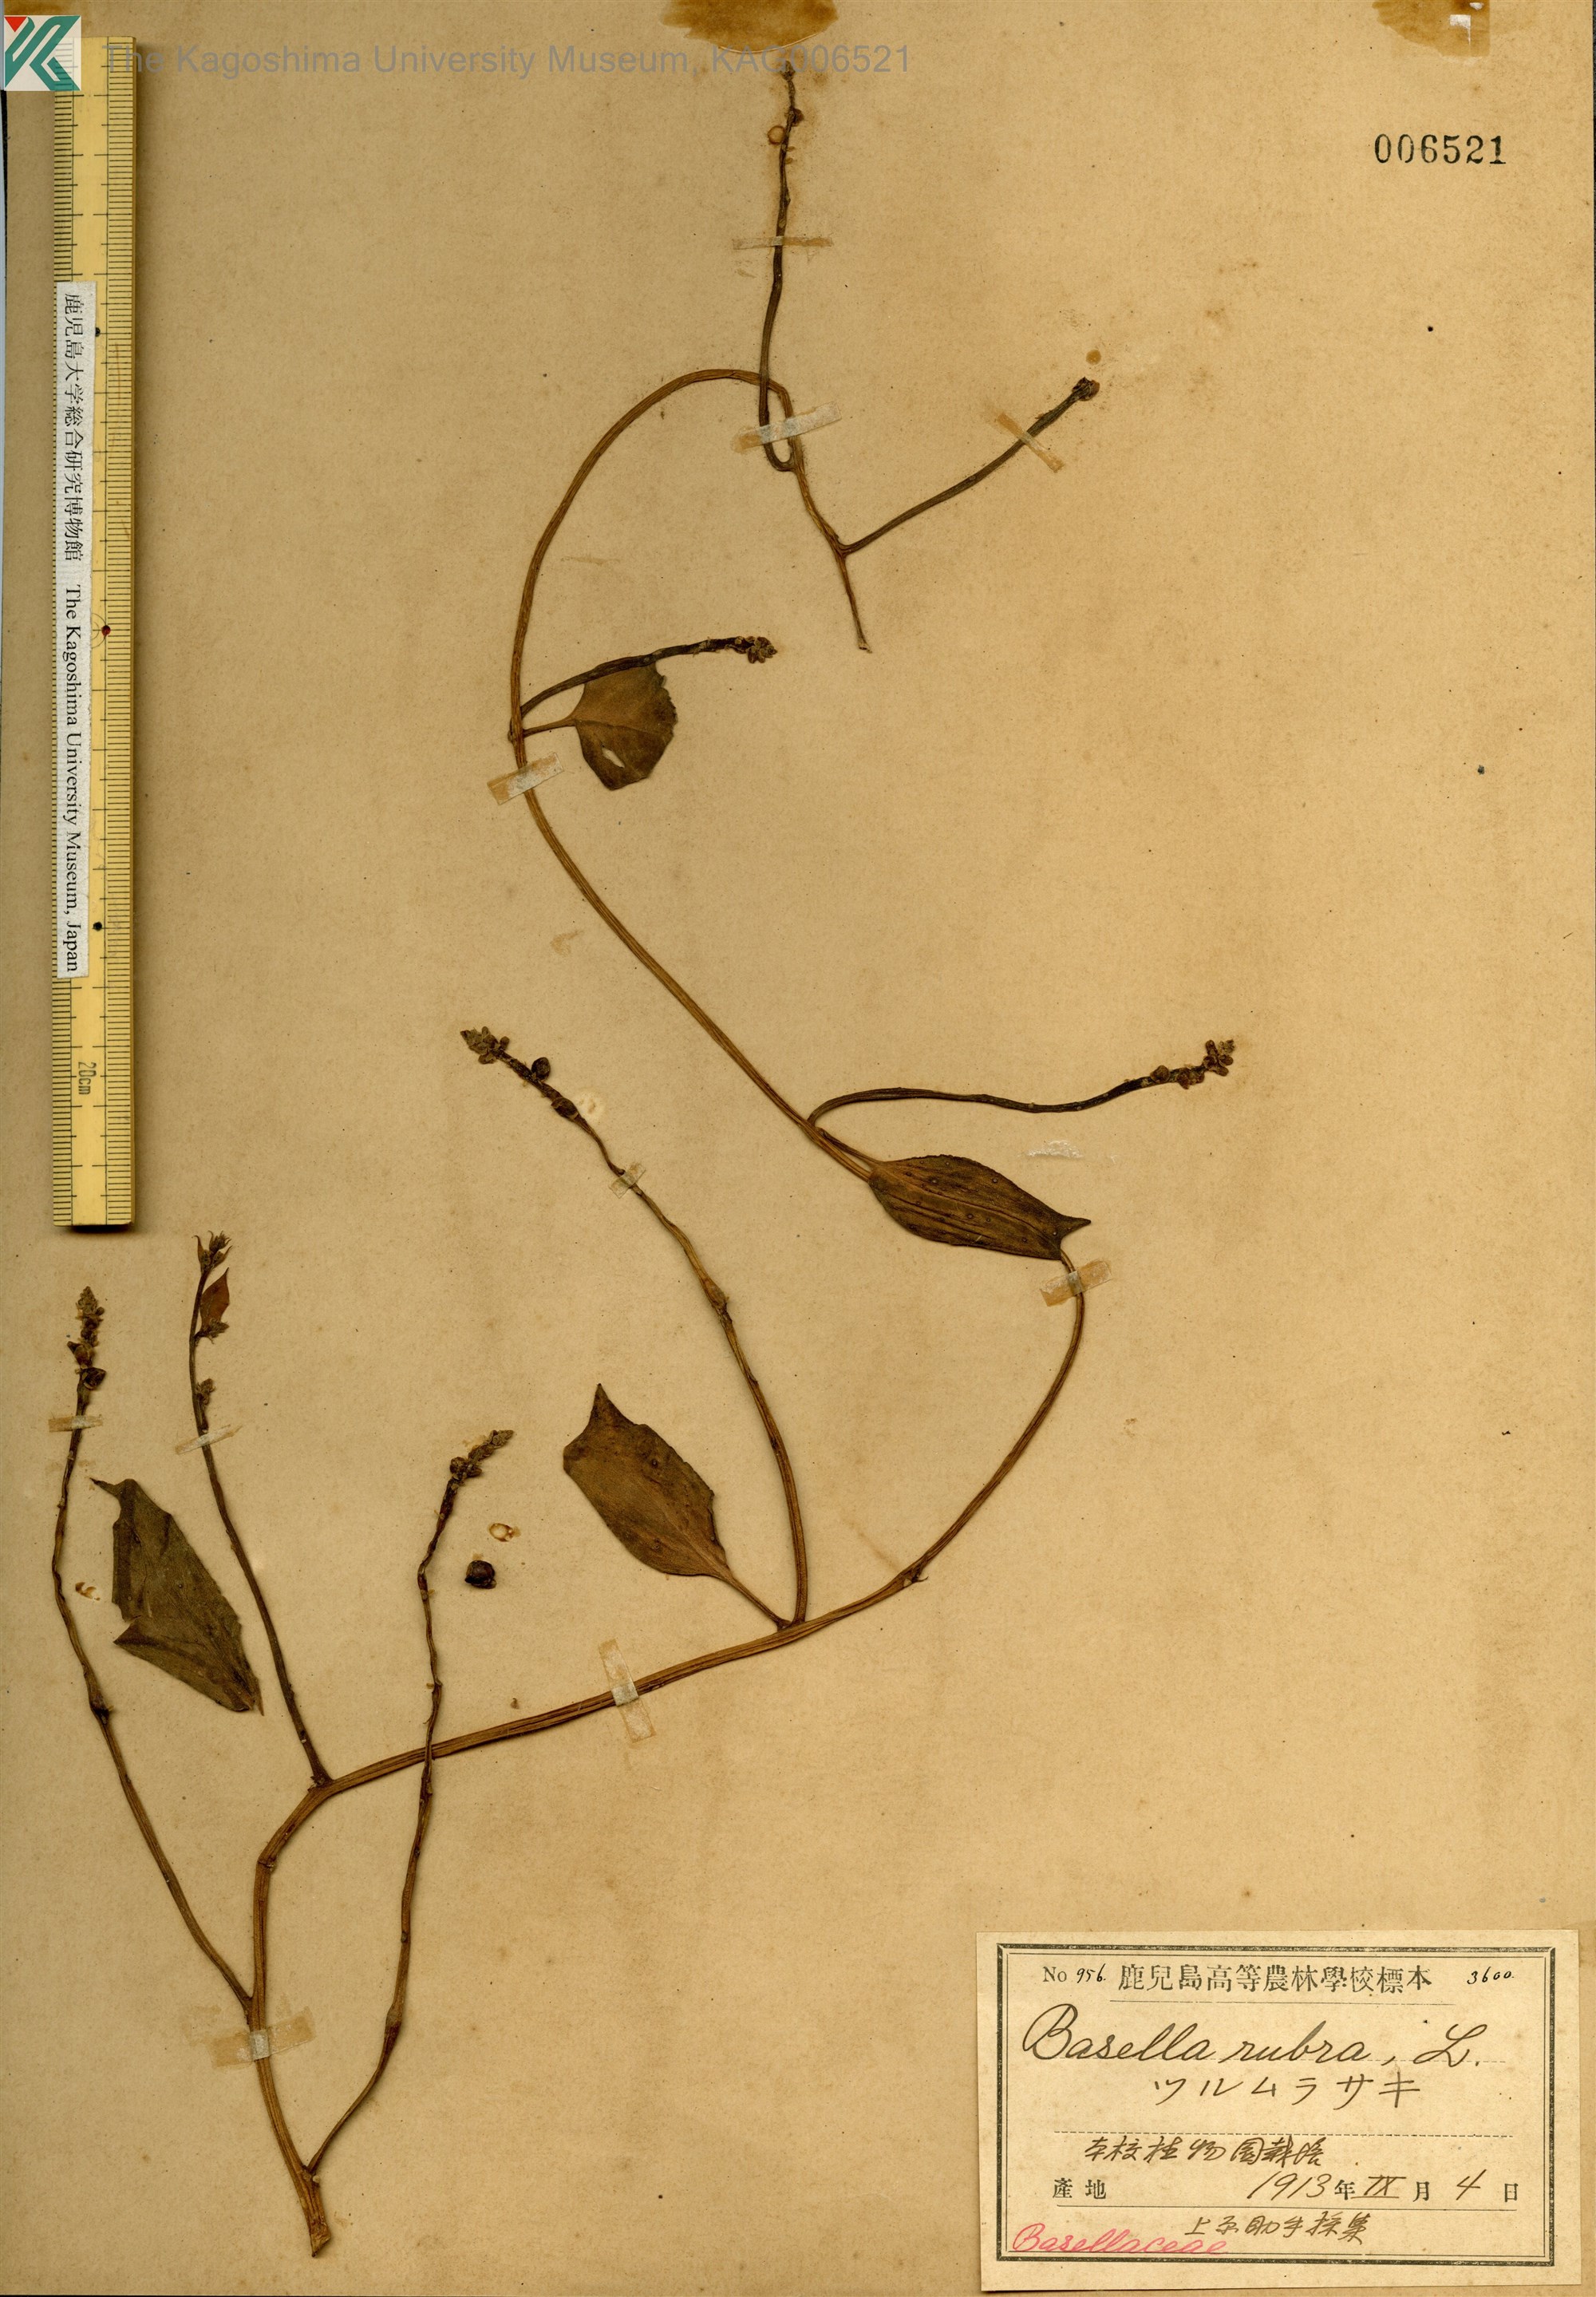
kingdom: Plantae
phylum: Tracheophyta
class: Magnoliopsida
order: Caryophyllales
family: Basellaceae
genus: Basella
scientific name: Basella alba
